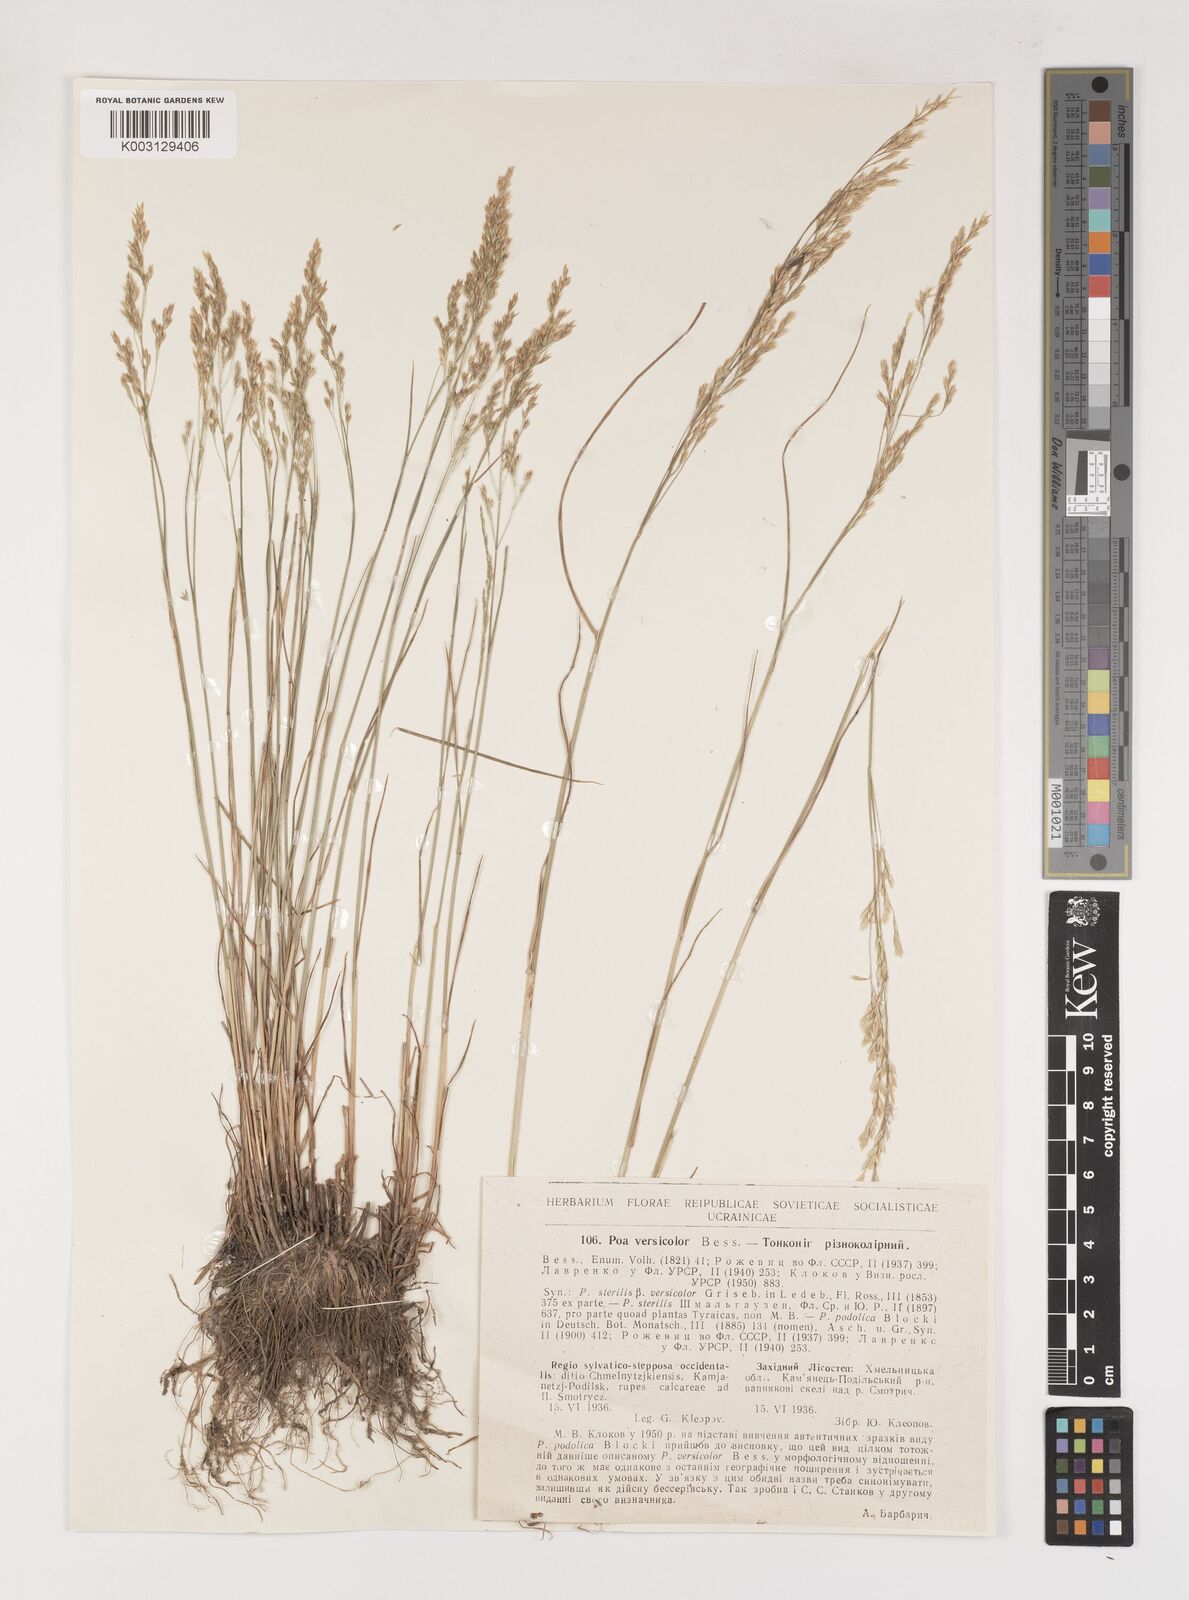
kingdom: Plantae
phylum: Tracheophyta
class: Liliopsida
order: Poales
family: Poaceae
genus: Poa
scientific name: Poa versicolor
